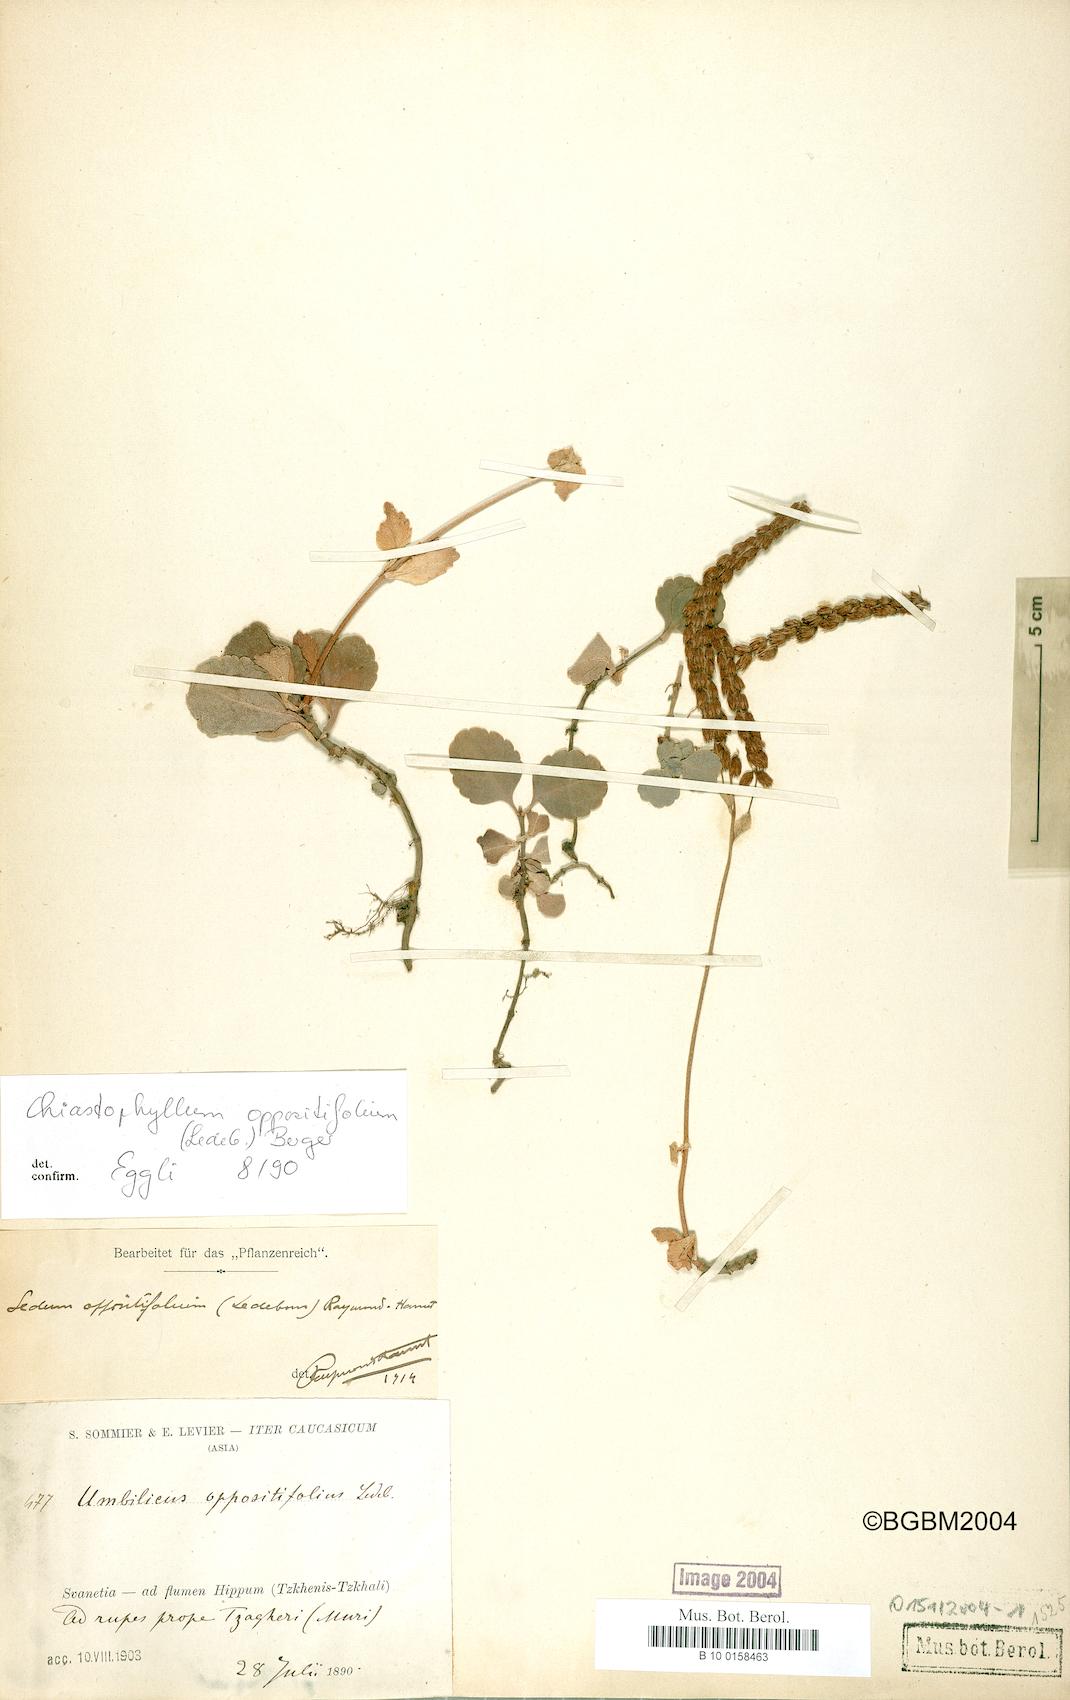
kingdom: Plantae
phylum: Tracheophyta
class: Magnoliopsida
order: Saxifragales
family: Crassulaceae
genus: Umbilicus
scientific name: Umbilicus oppositifolius
